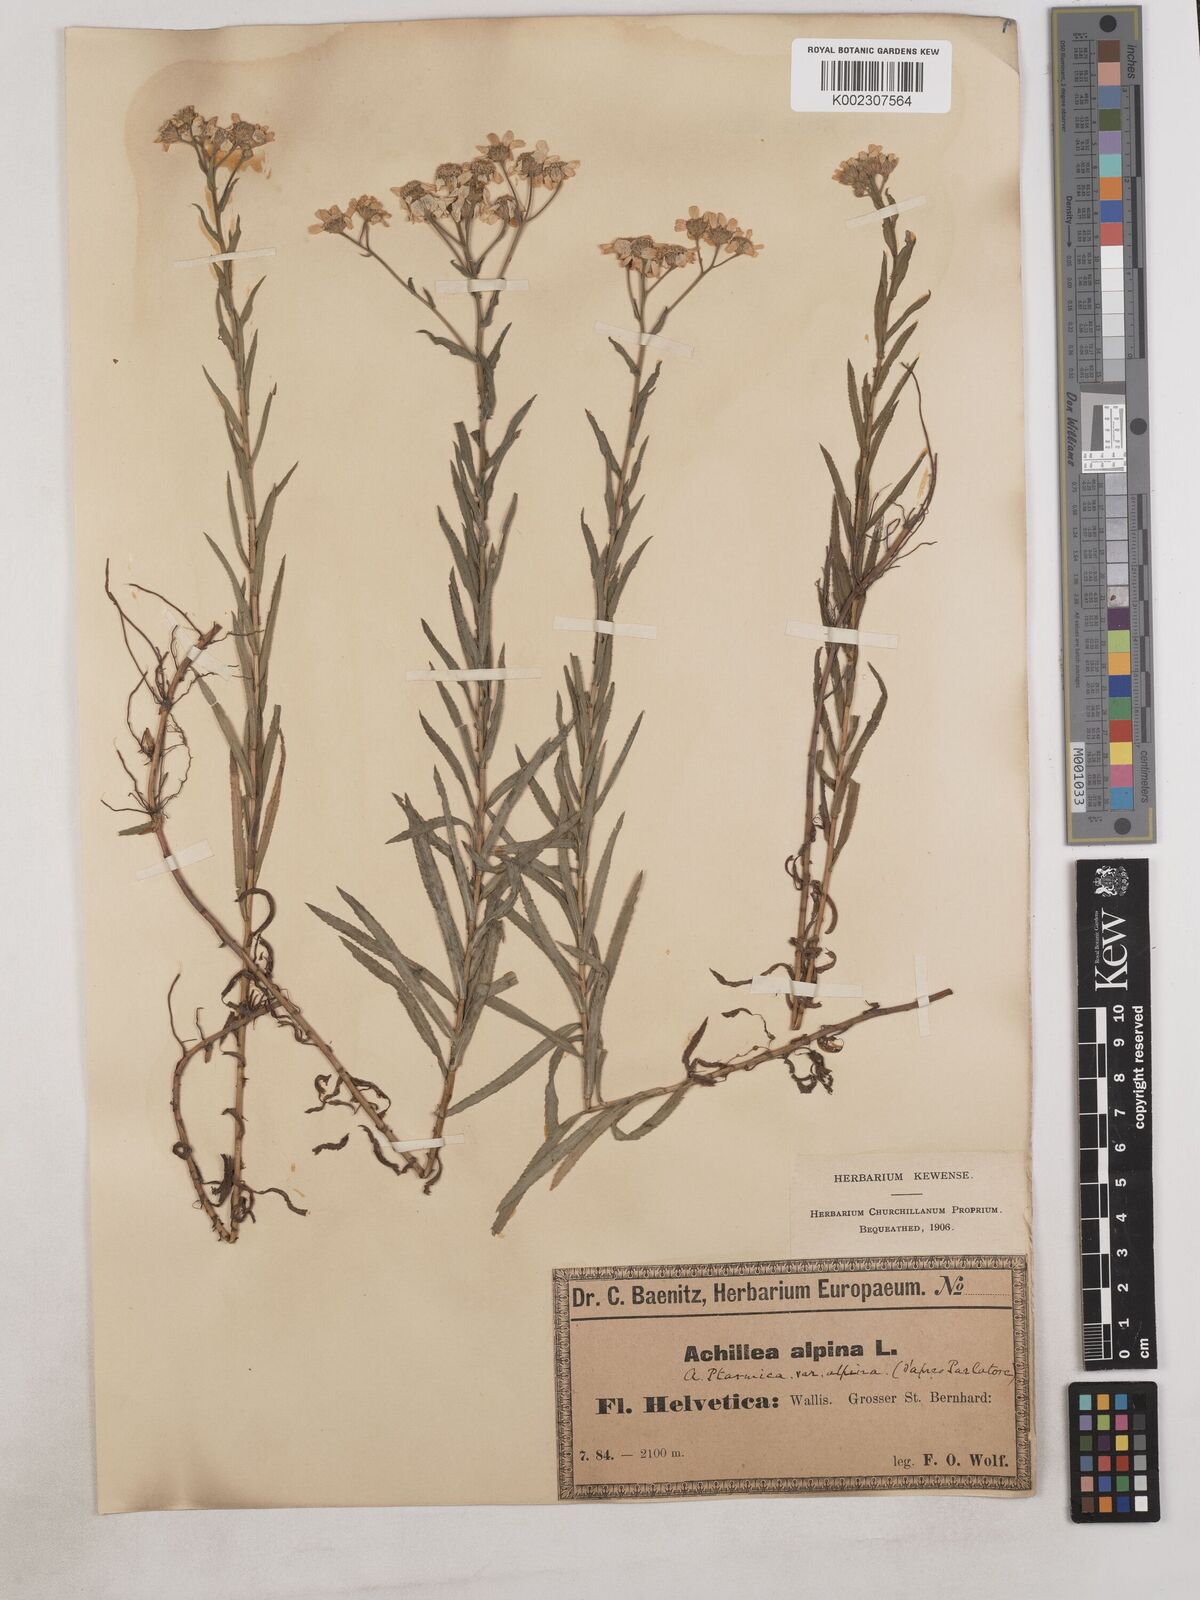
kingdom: Plantae
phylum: Tracheophyta
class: Magnoliopsida
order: Asterales
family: Asteraceae
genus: Achillea
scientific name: Achillea serrata
